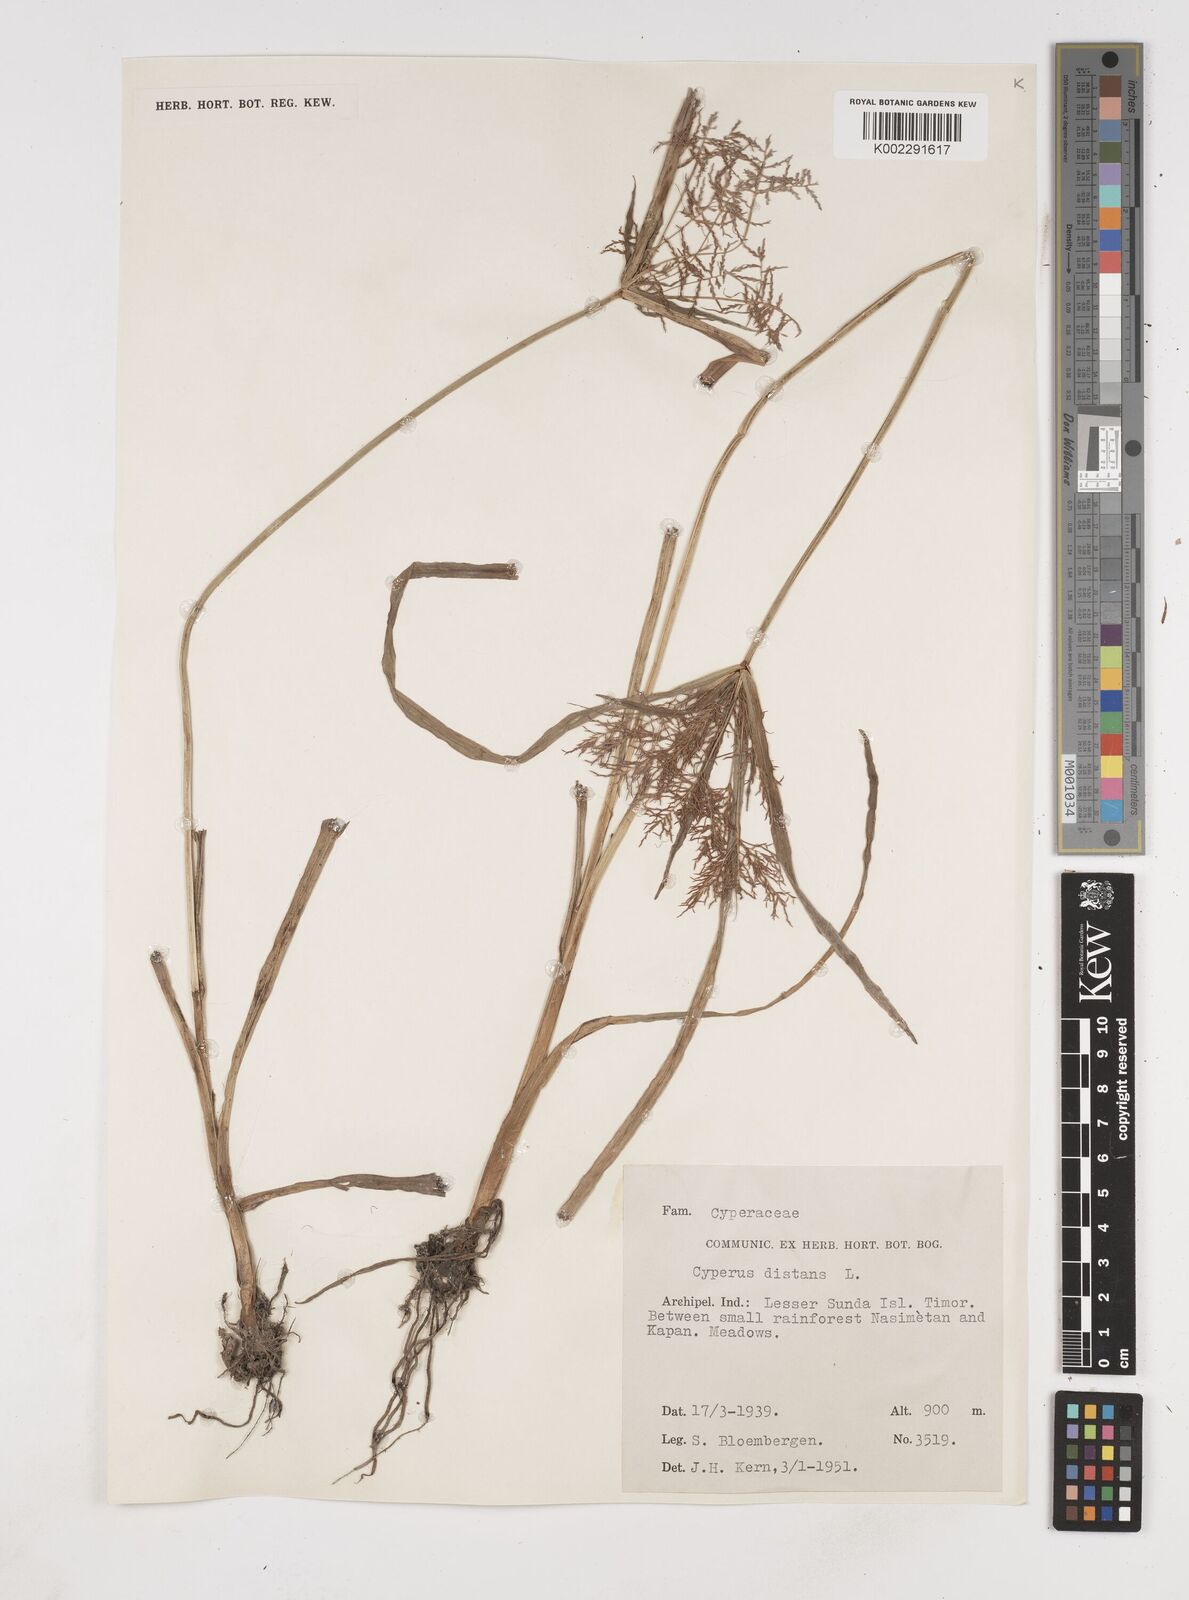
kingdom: Plantae
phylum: Tracheophyta
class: Liliopsida
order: Poales
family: Cyperaceae
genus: Cyperus
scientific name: Cyperus distans
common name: Slender cyperus
